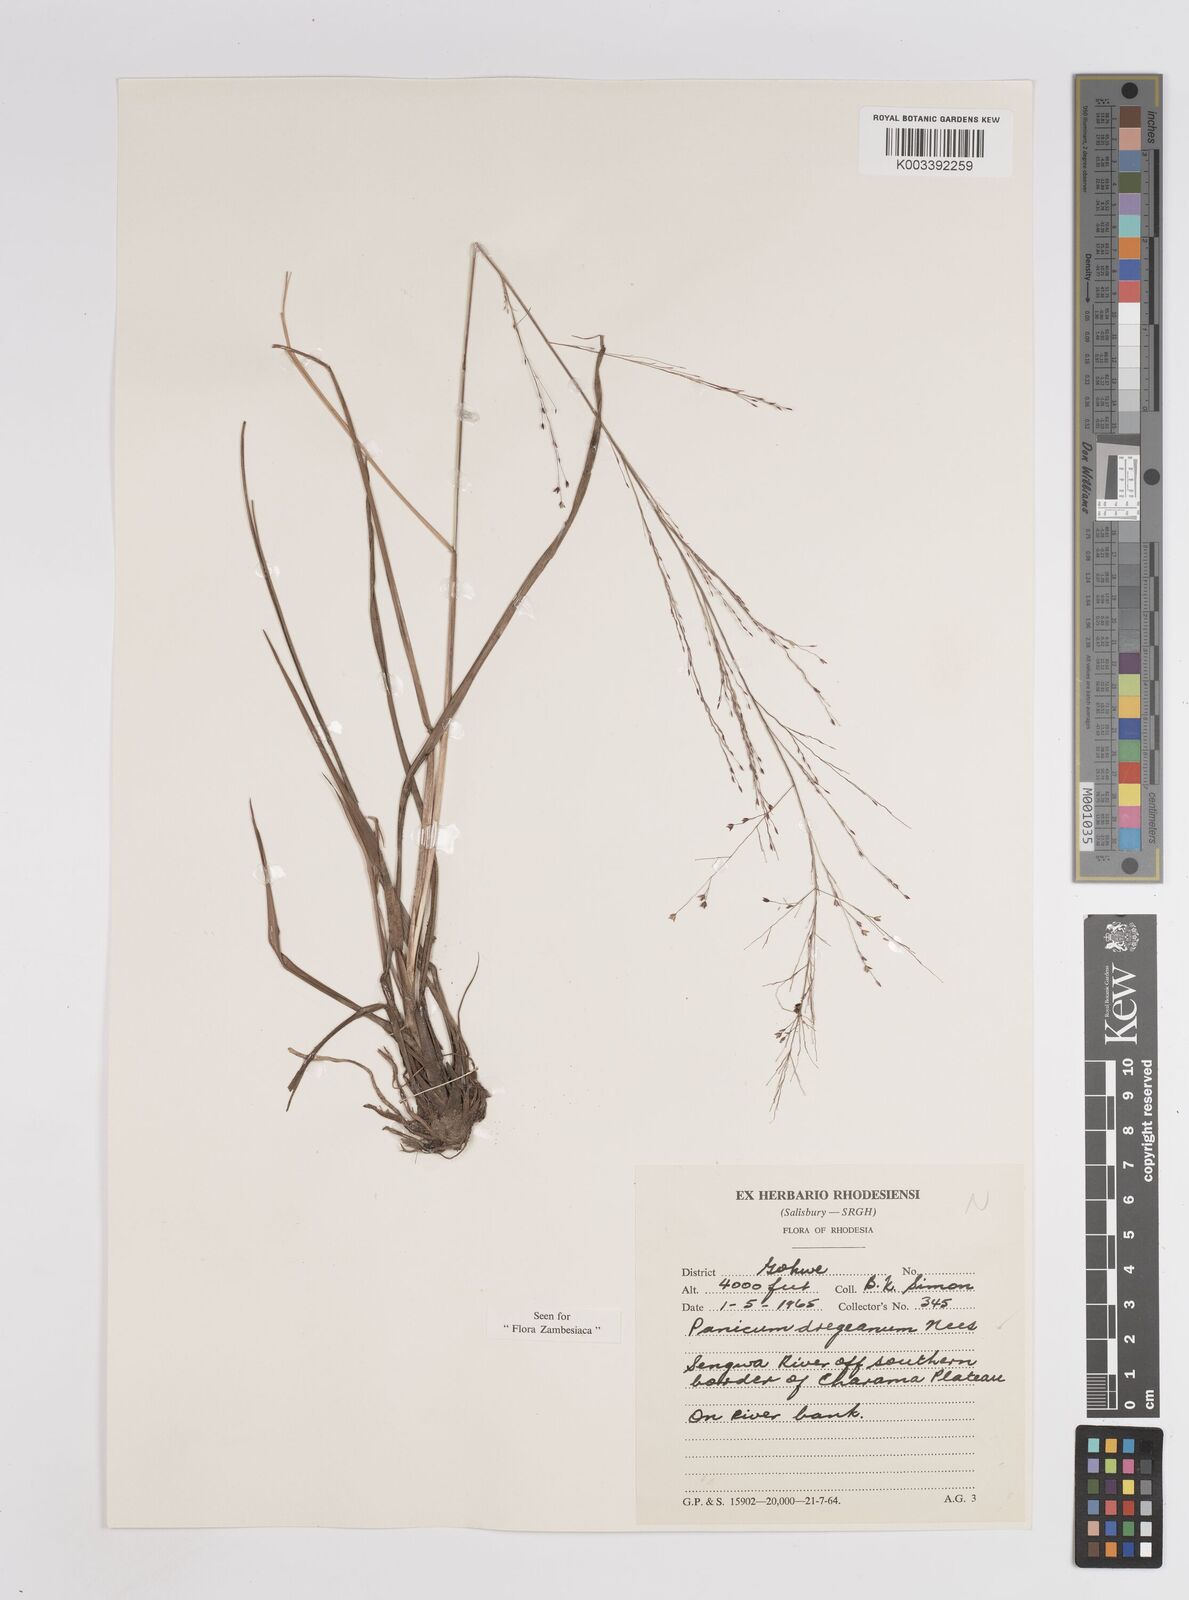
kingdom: Plantae
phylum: Tracheophyta
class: Liliopsida
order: Poales
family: Poaceae
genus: Panicum
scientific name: Panicum dregeanum
